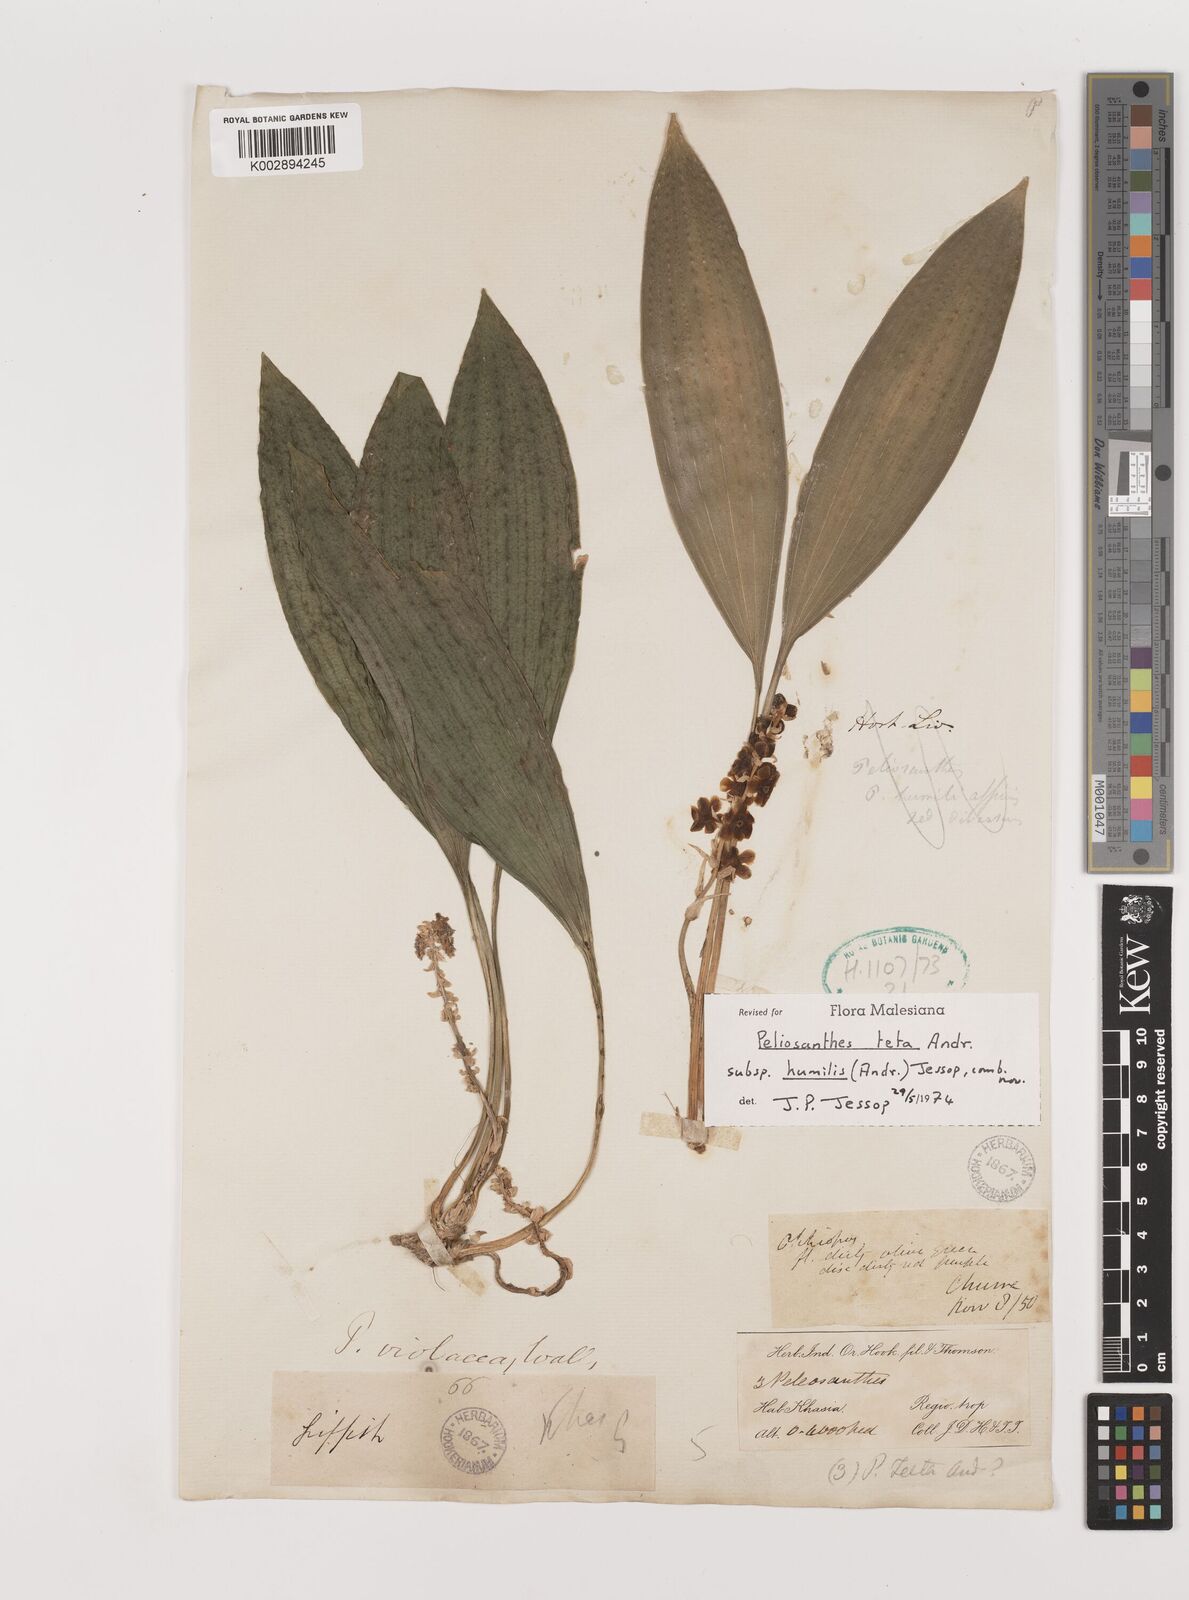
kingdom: Plantae
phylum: Tracheophyta
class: Liliopsida
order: Asparagales
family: Asparagaceae
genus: Peliosanthes
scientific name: Peliosanthes teta
